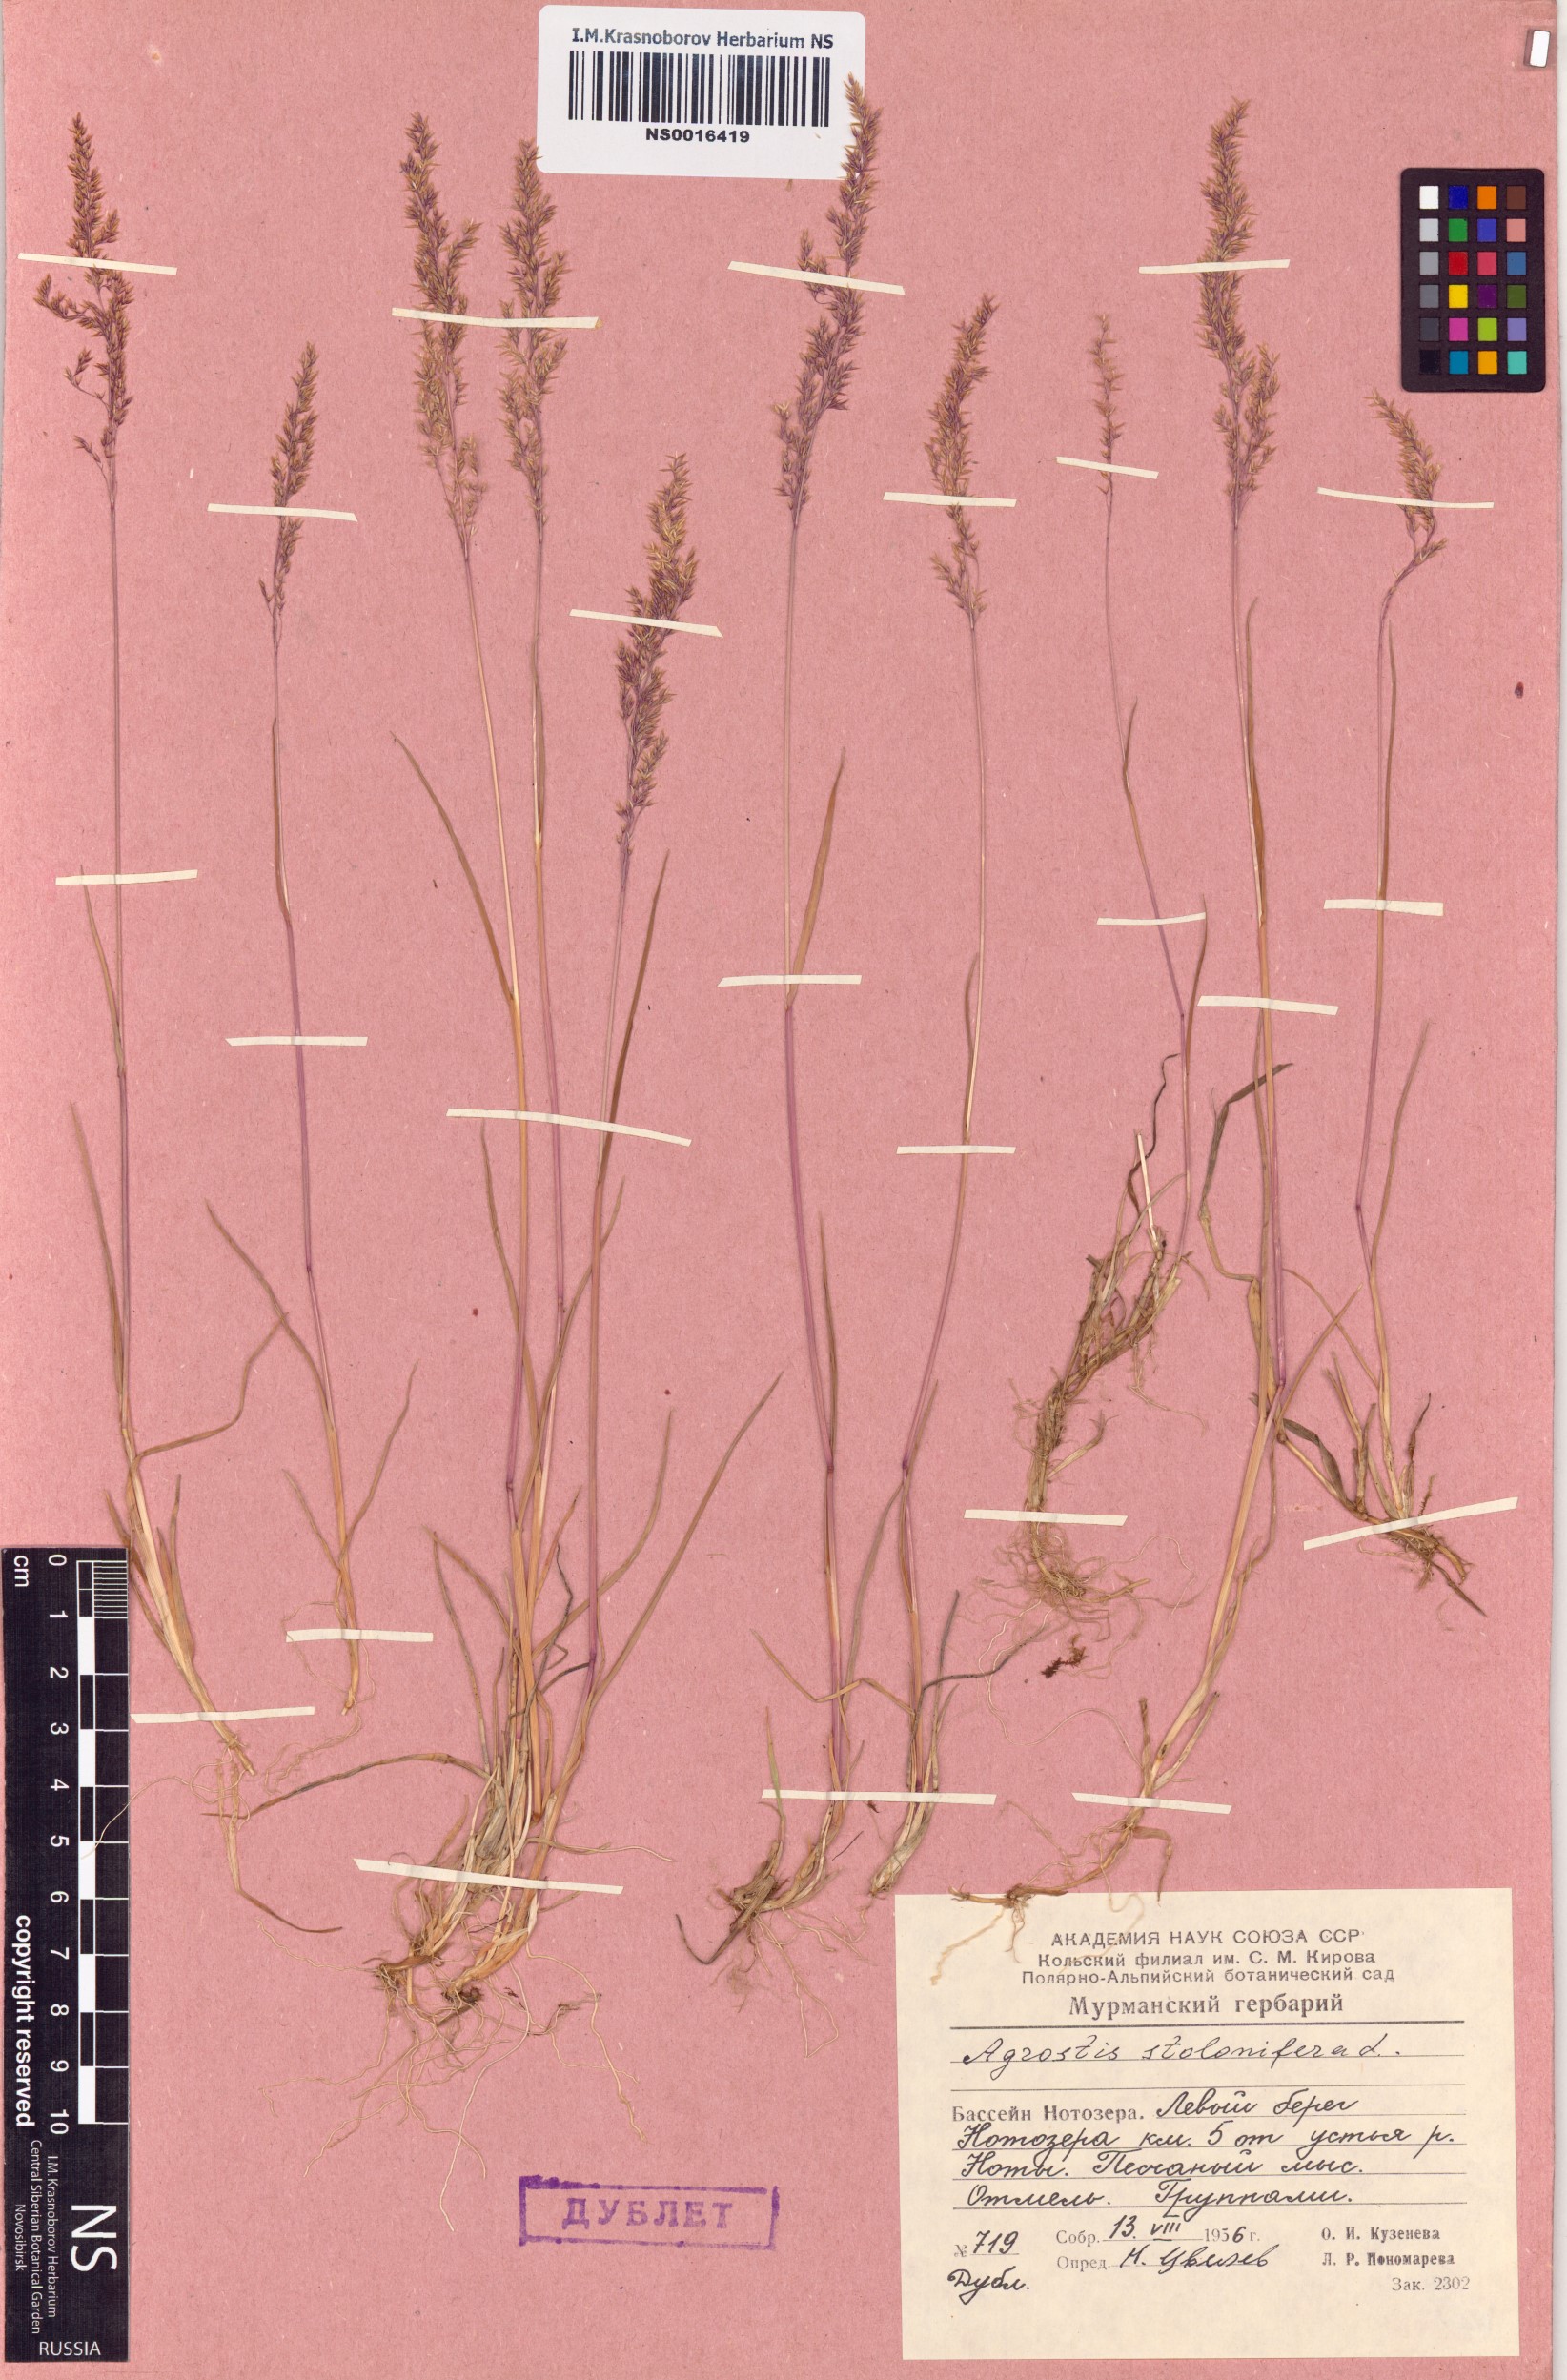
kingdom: Plantae
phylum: Tracheophyta
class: Liliopsida
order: Poales
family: Poaceae
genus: Agrostis
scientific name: Agrostis stolonifera
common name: Creeping bentgrass
